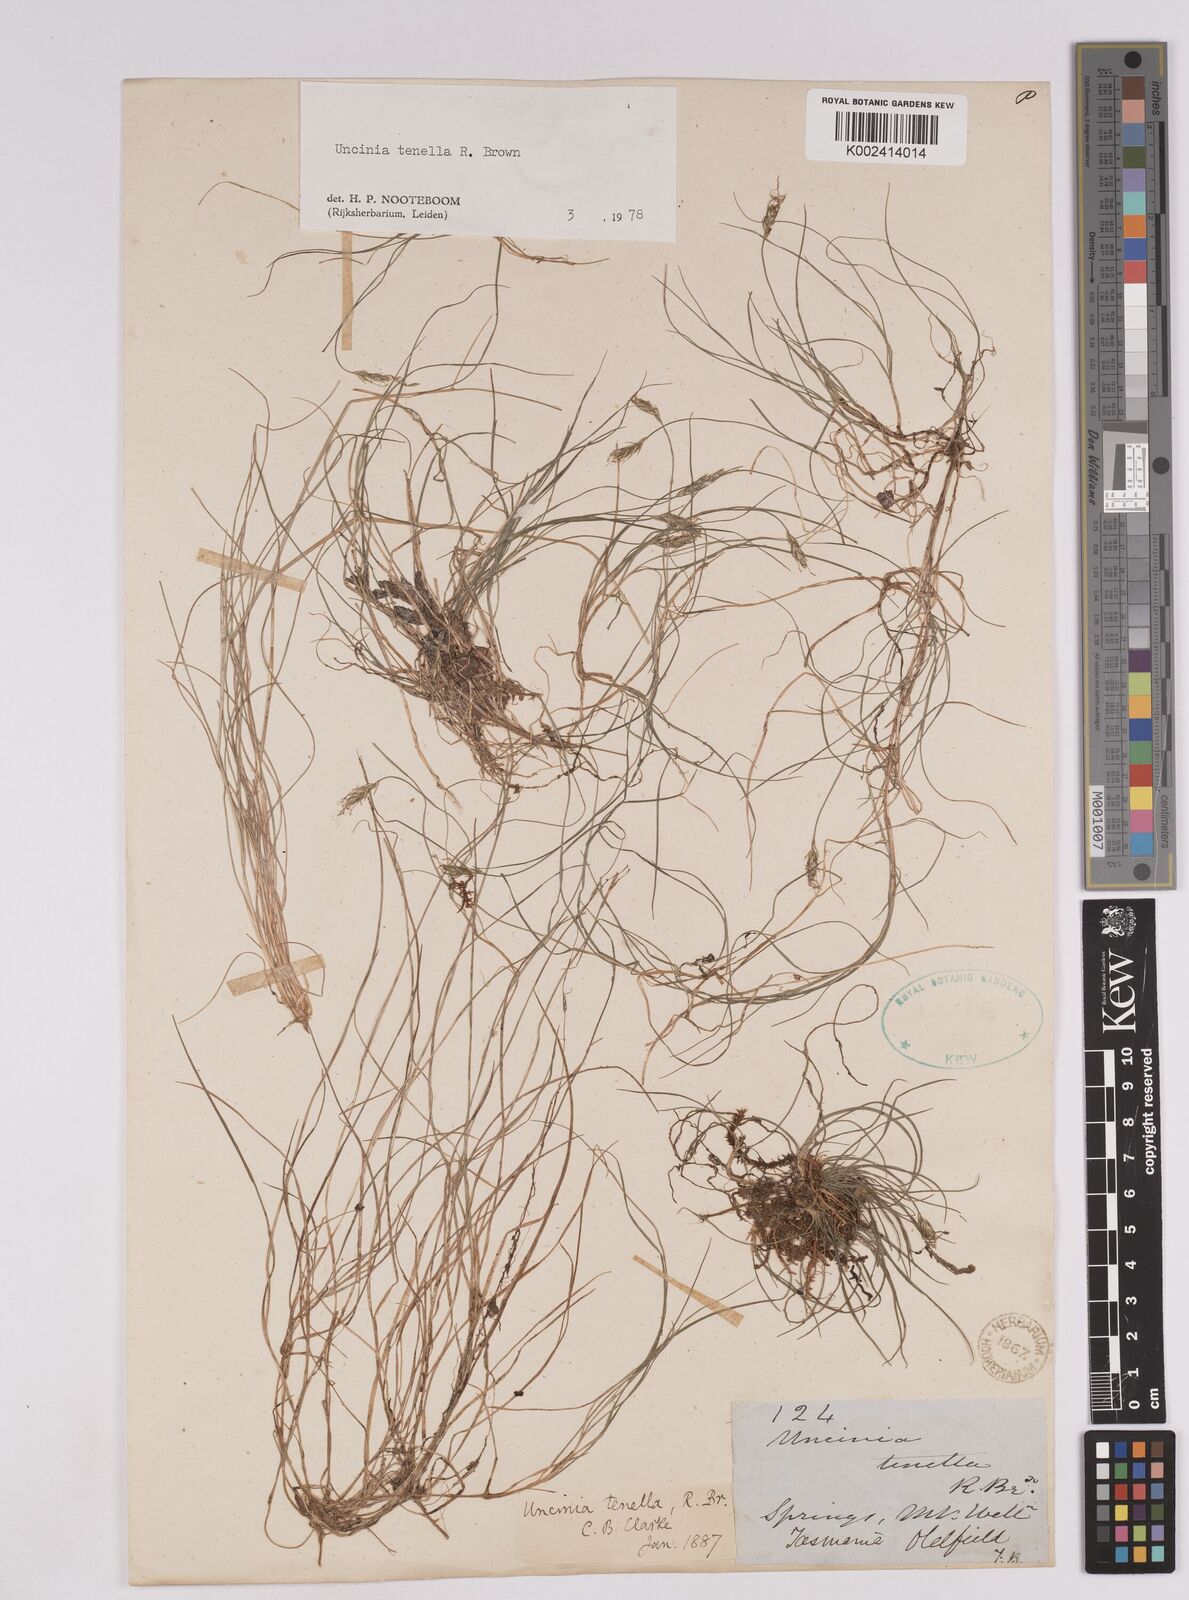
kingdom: Plantae
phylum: Tracheophyta
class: Liliopsida
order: Poales
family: Cyperaceae
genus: Carex
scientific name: Carex austrotenella
